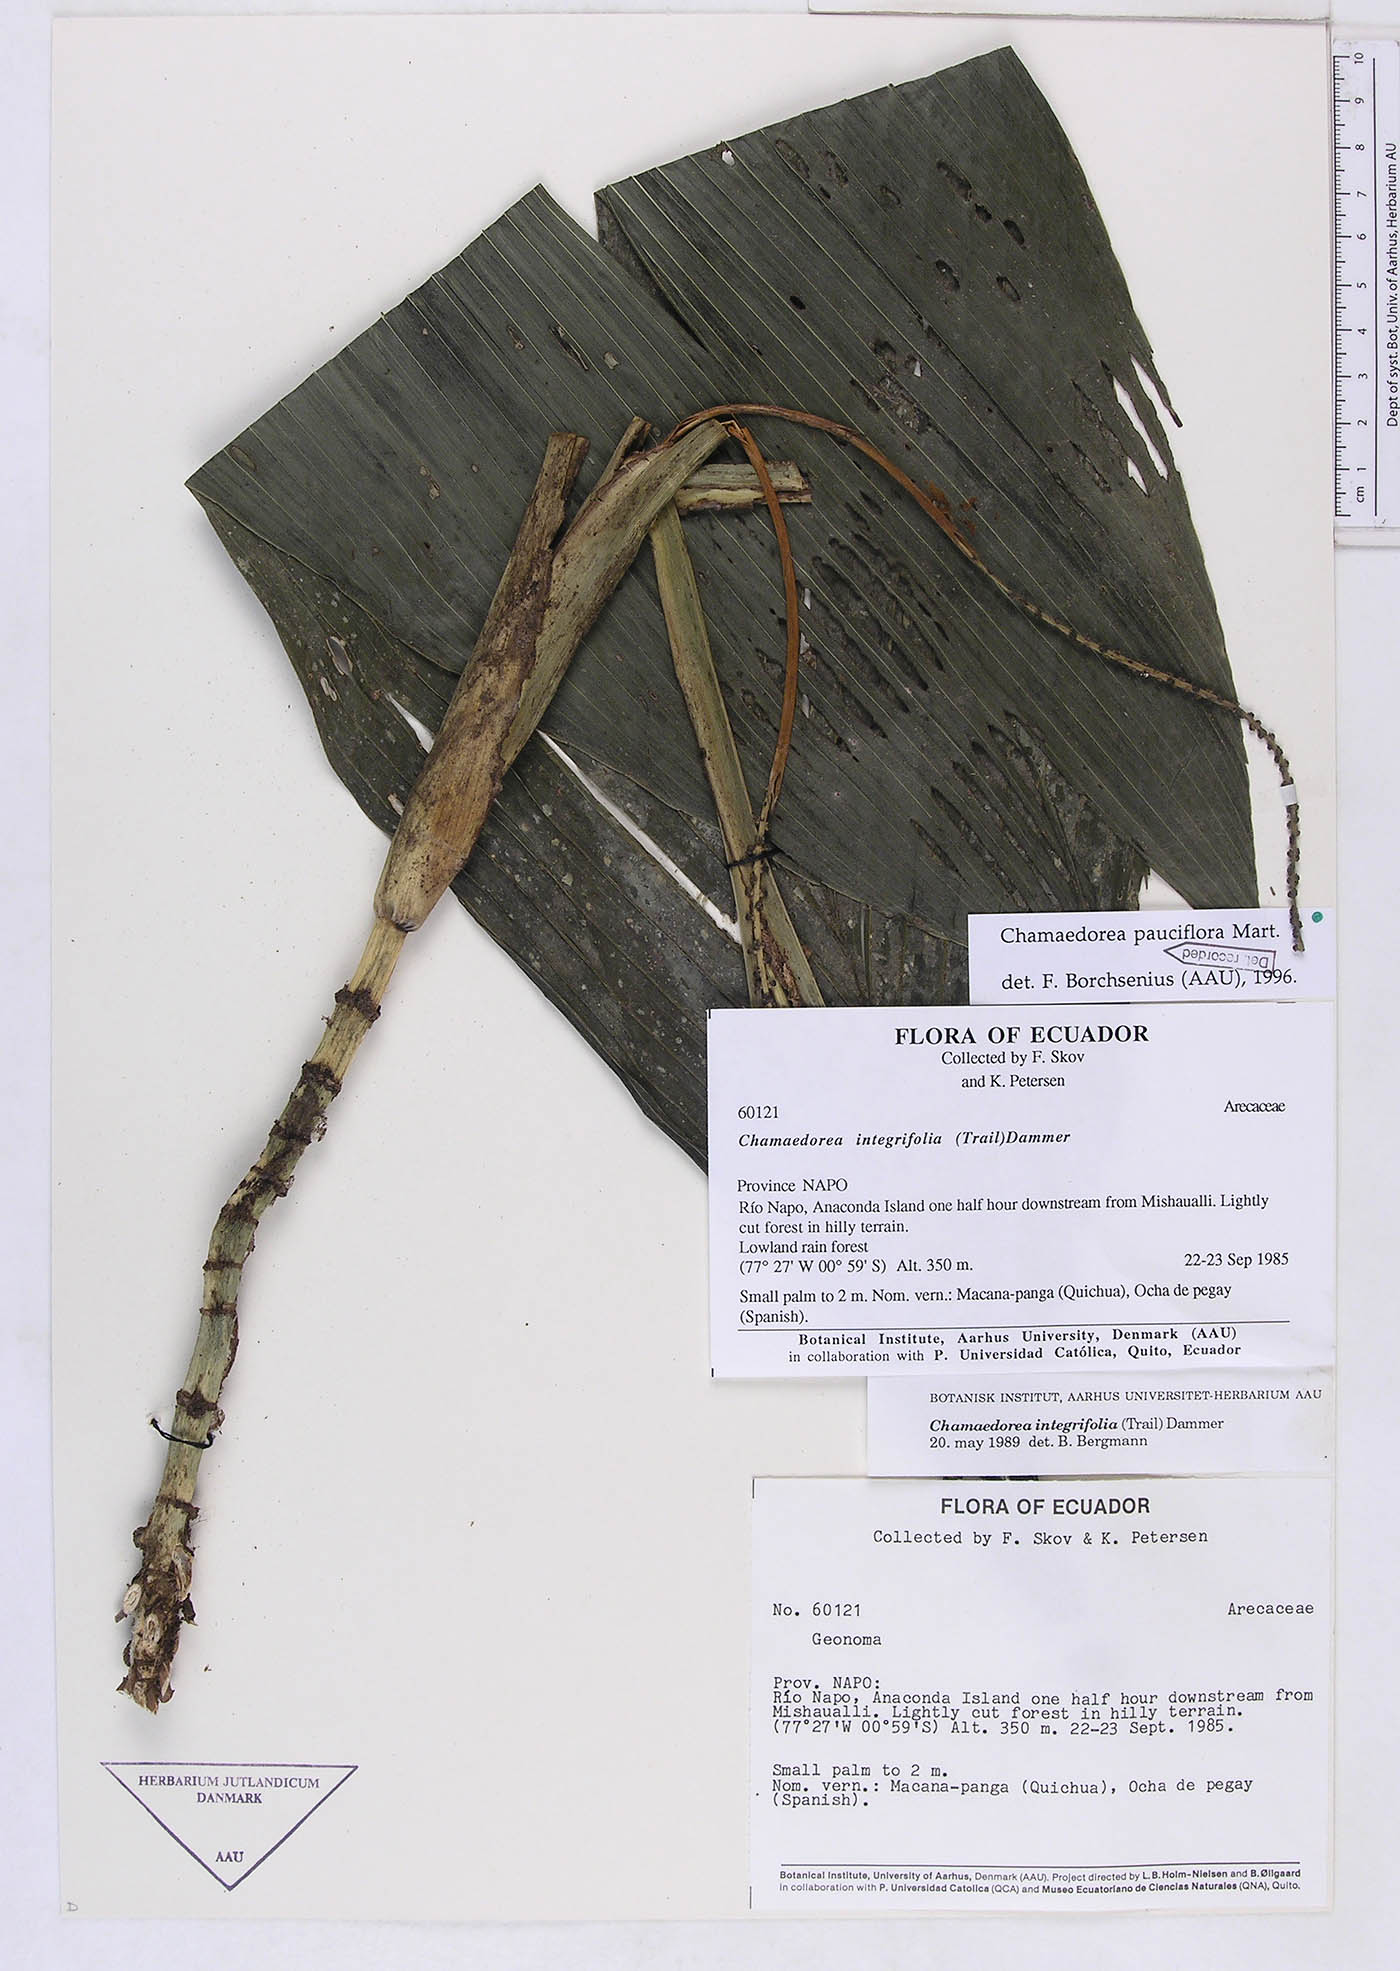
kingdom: Plantae
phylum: Tracheophyta
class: Liliopsida
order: Arecales
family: Arecaceae
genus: Chamaedorea
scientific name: Chamaedorea pauciflora
